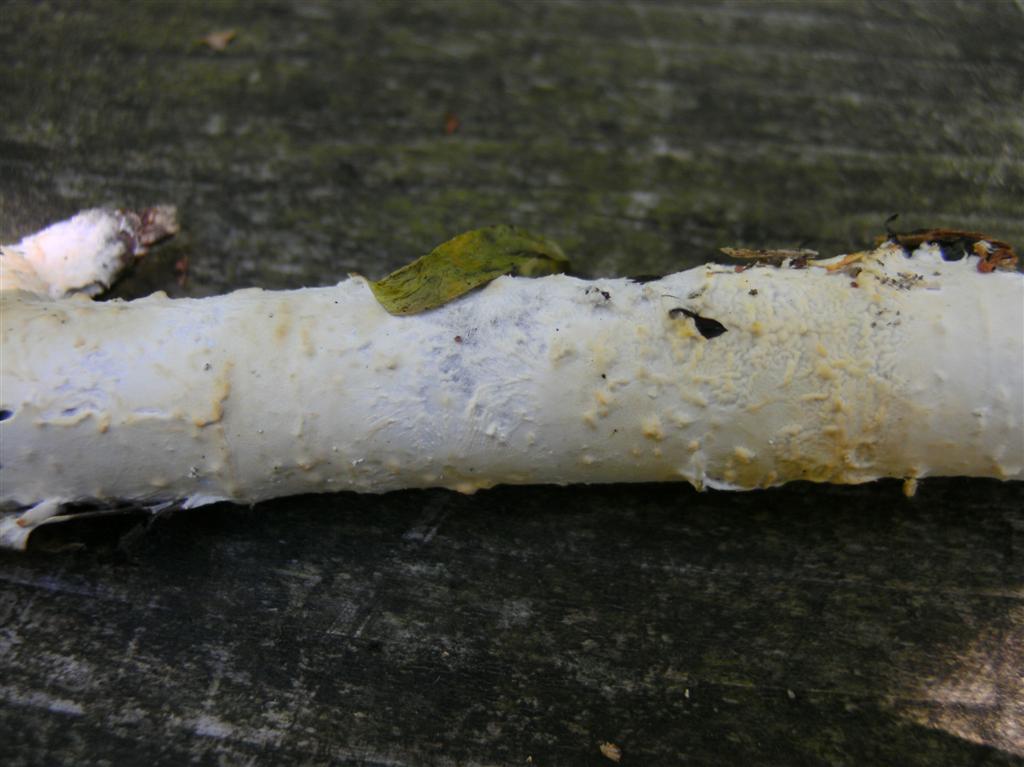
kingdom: Fungi
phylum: Basidiomycota
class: Agaricomycetes
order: Polyporales
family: Irpicaceae
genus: Efibula
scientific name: Efibula tuberculata
